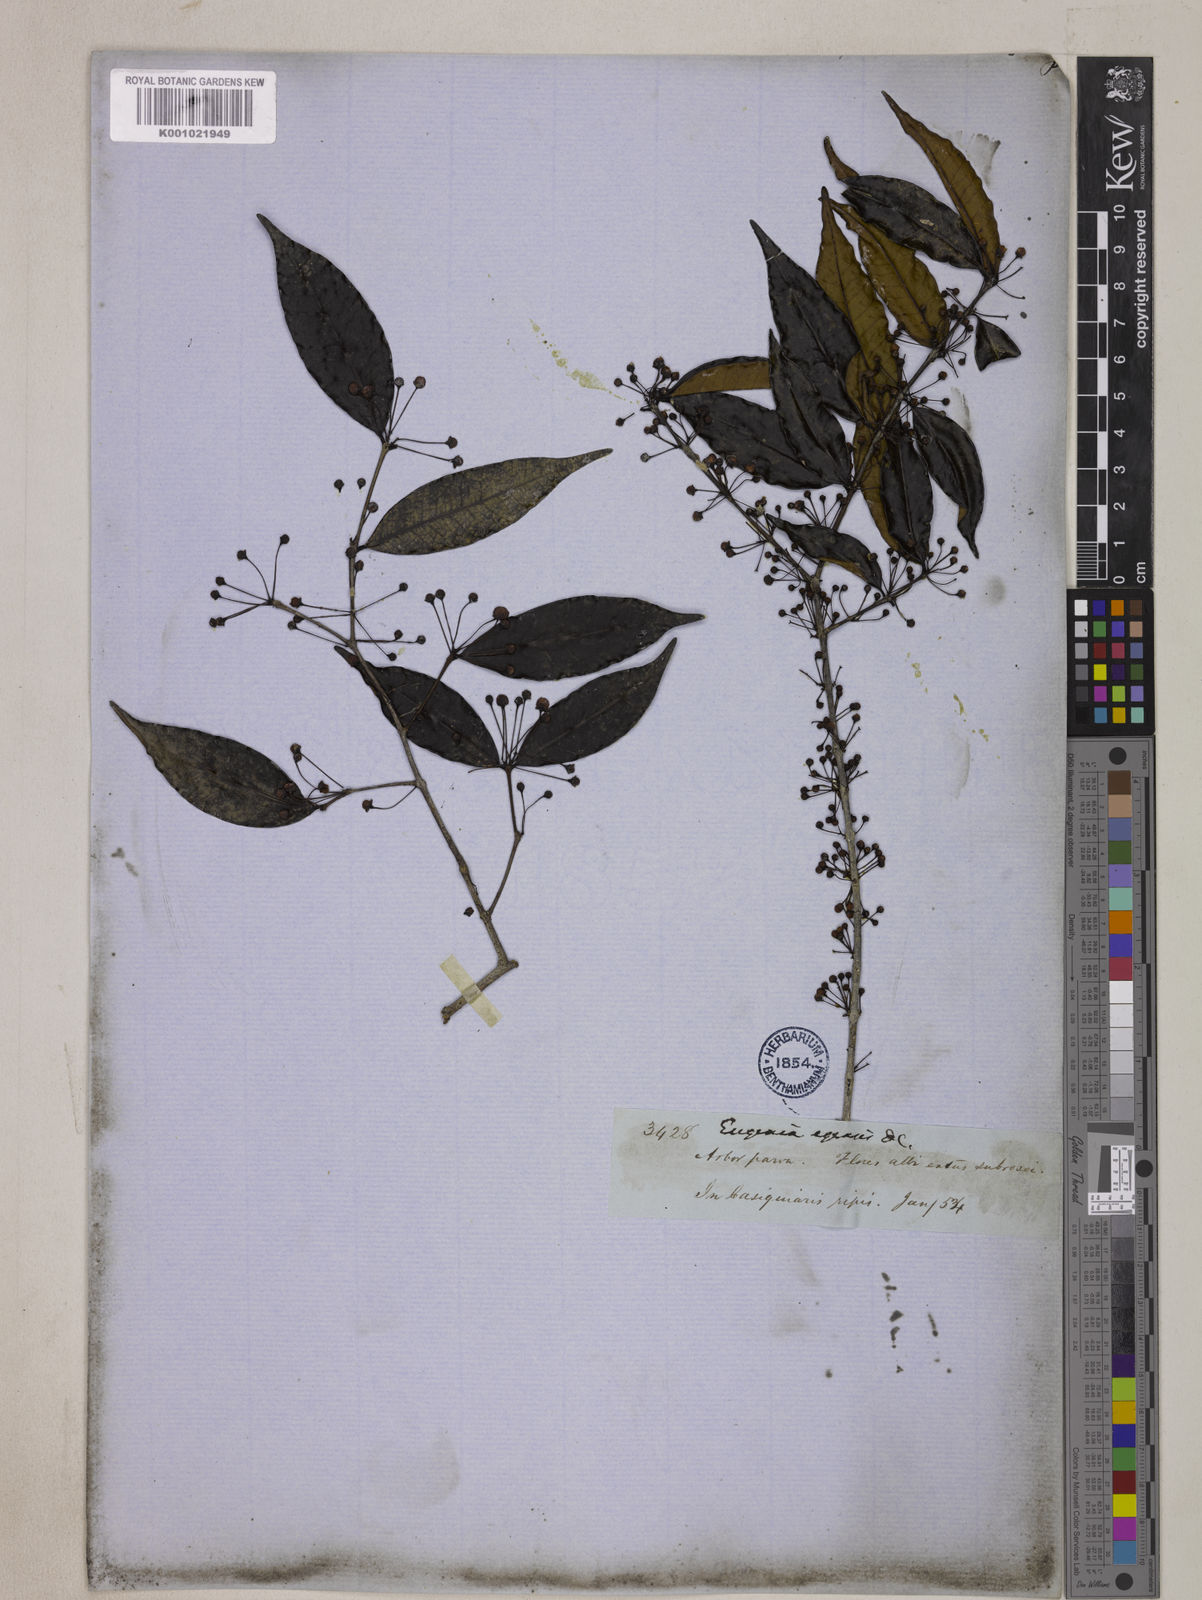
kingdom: Plantae
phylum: Tracheophyta
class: Magnoliopsida
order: Myrtales
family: Myrtaceae
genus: Eugenia
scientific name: Eugenia egensis
